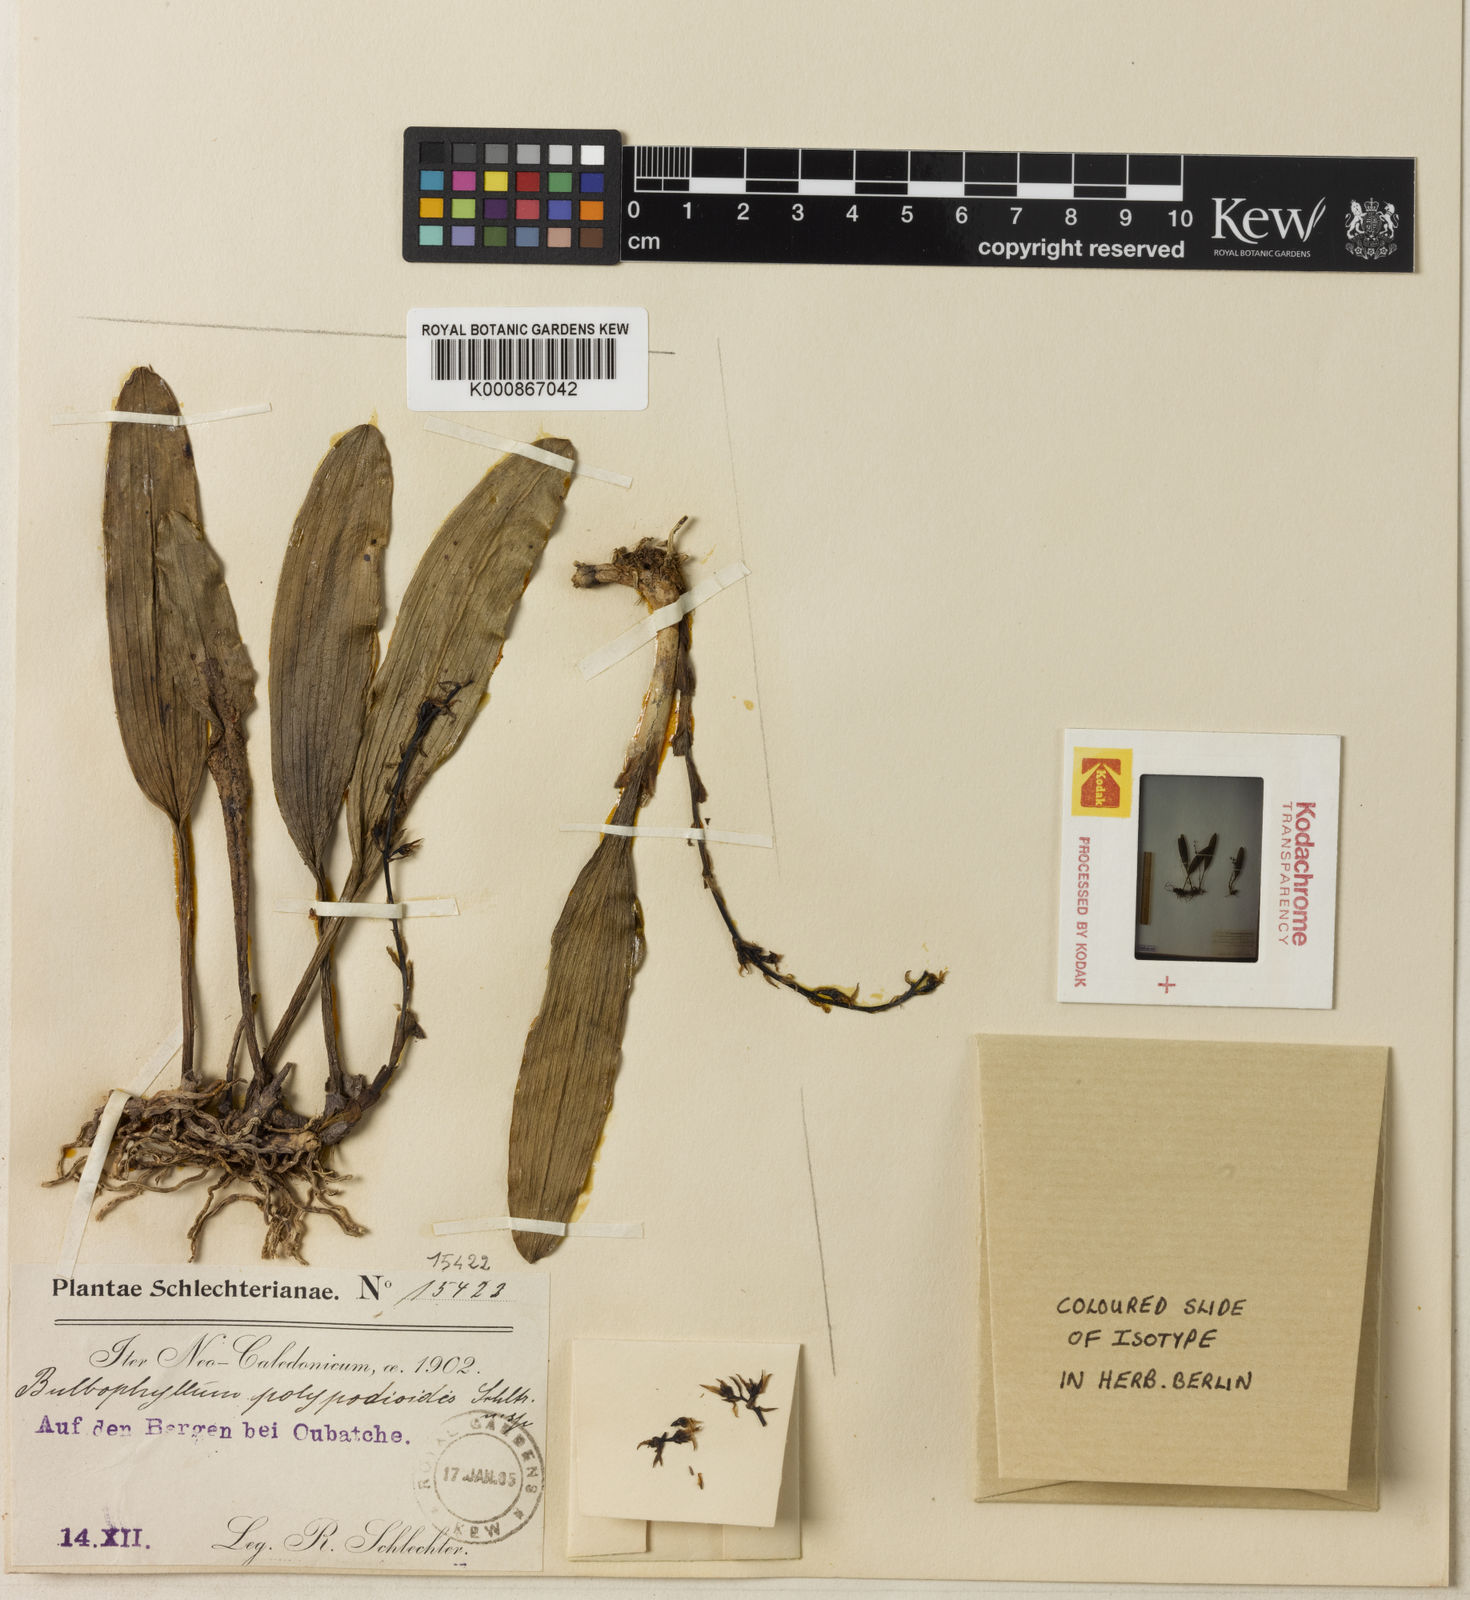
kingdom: Plantae
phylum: Tracheophyta
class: Liliopsida
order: Asparagales
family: Orchidaceae
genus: Bulbophyllum
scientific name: Bulbophyllum apodum
